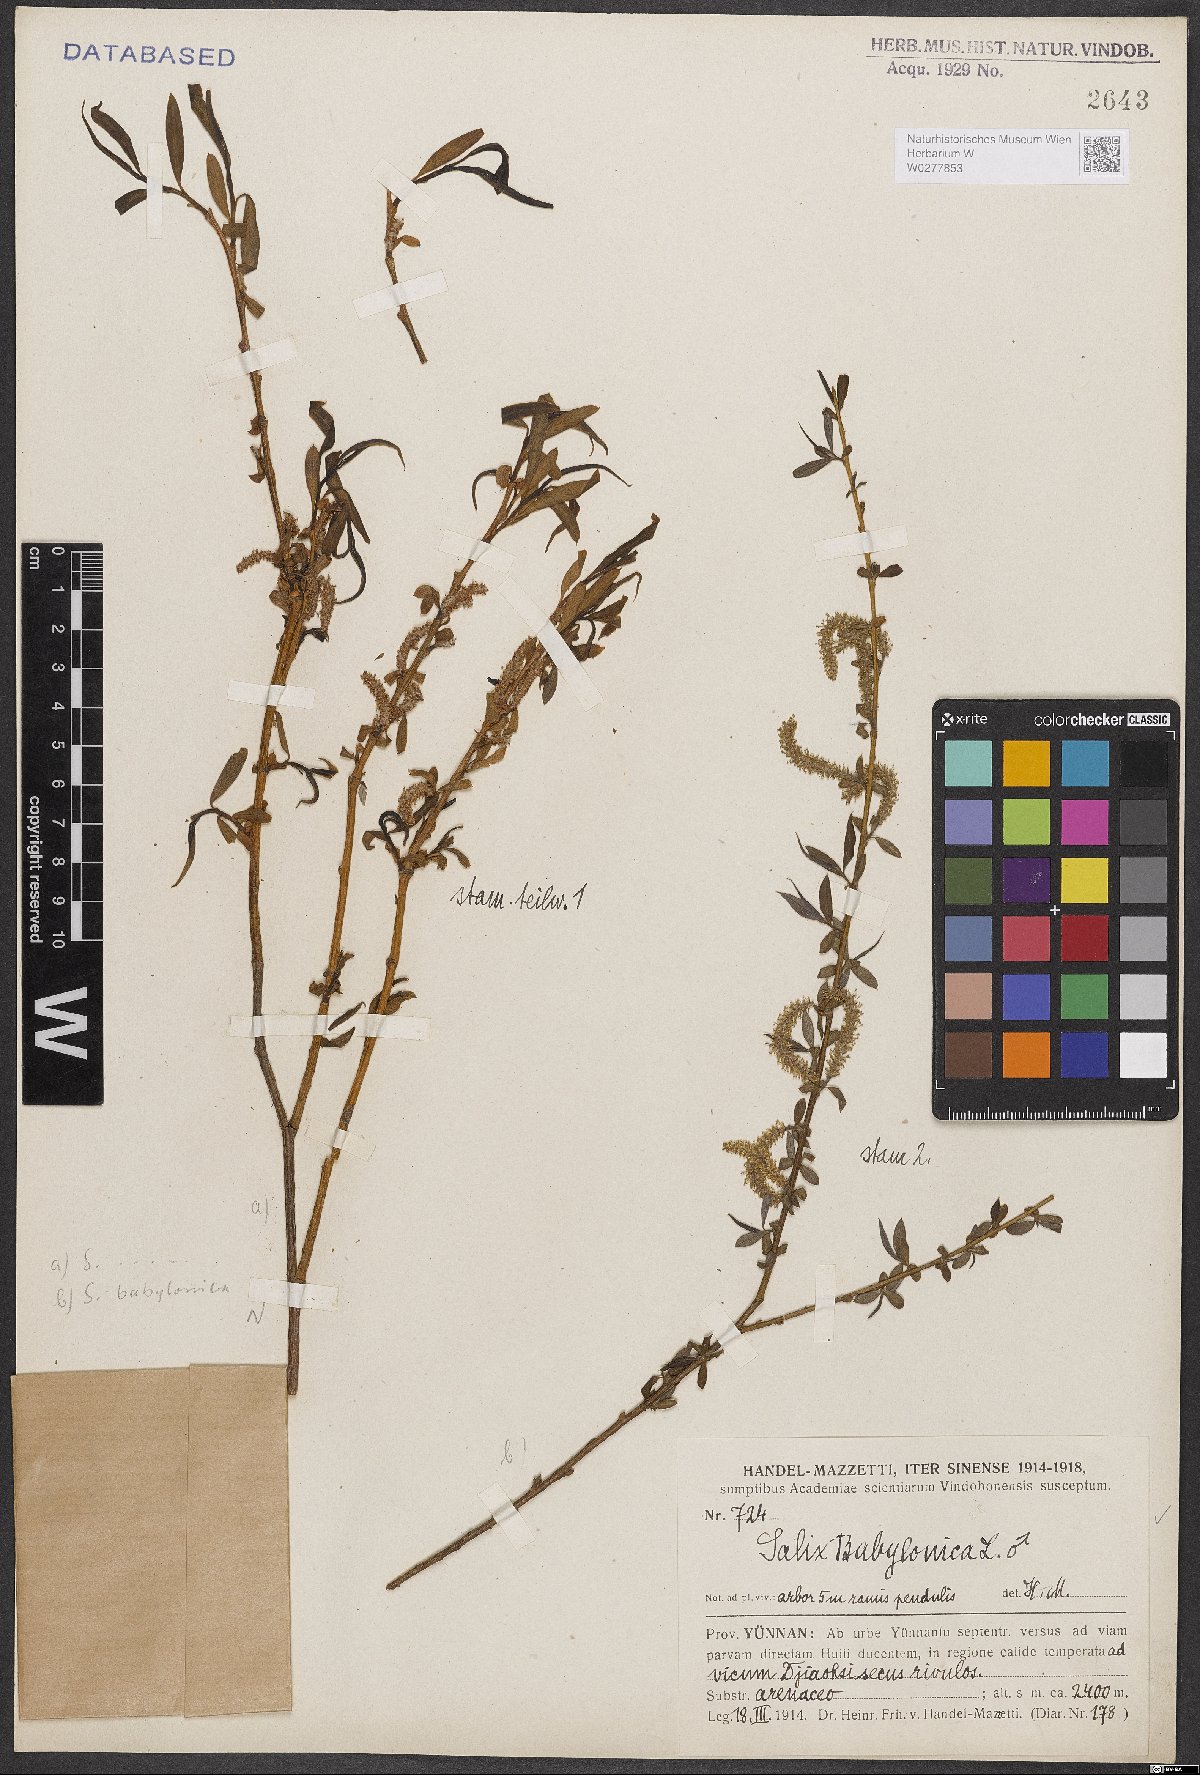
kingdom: Plantae
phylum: Tracheophyta
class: Magnoliopsida
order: Malpighiales
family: Salicaceae
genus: Salix
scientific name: Salix babylonica
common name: Weeping willow
